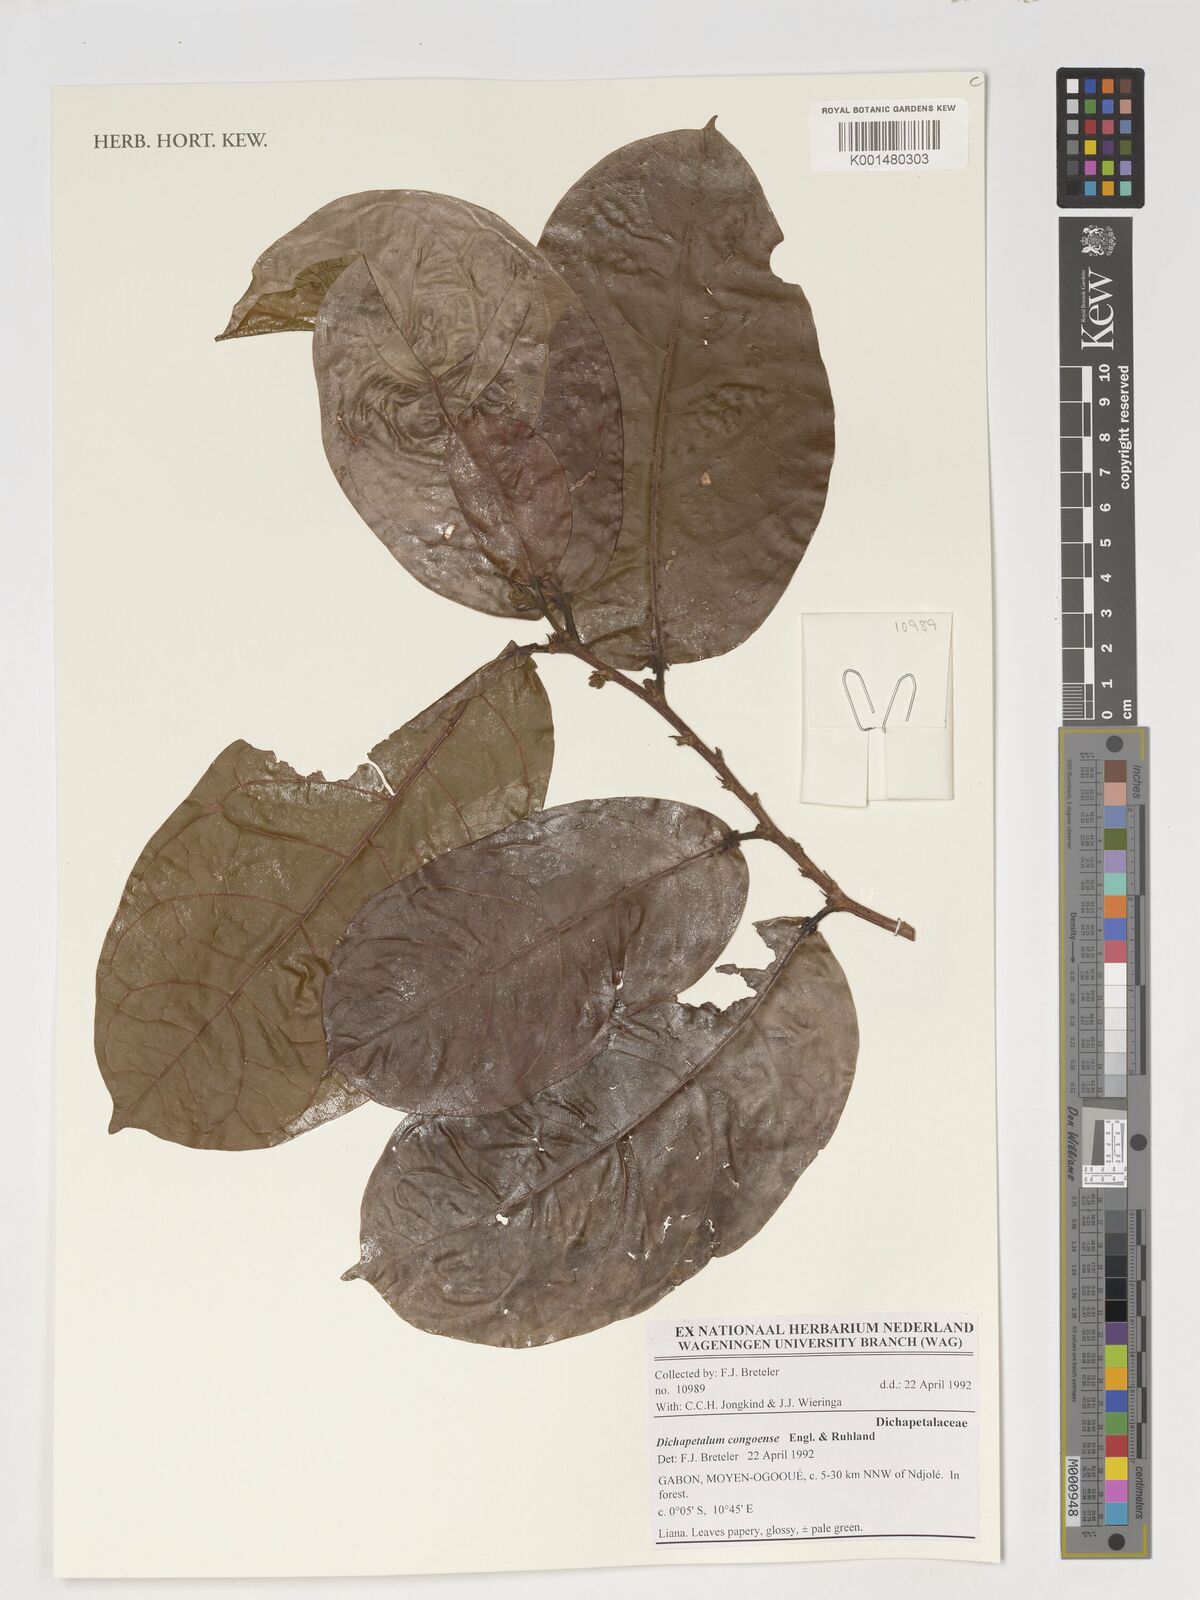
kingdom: Plantae
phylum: Tracheophyta
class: Magnoliopsida
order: Malpighiales
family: Dichapetalaceae
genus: Dichapetalum
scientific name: Dichapetalum congoense
